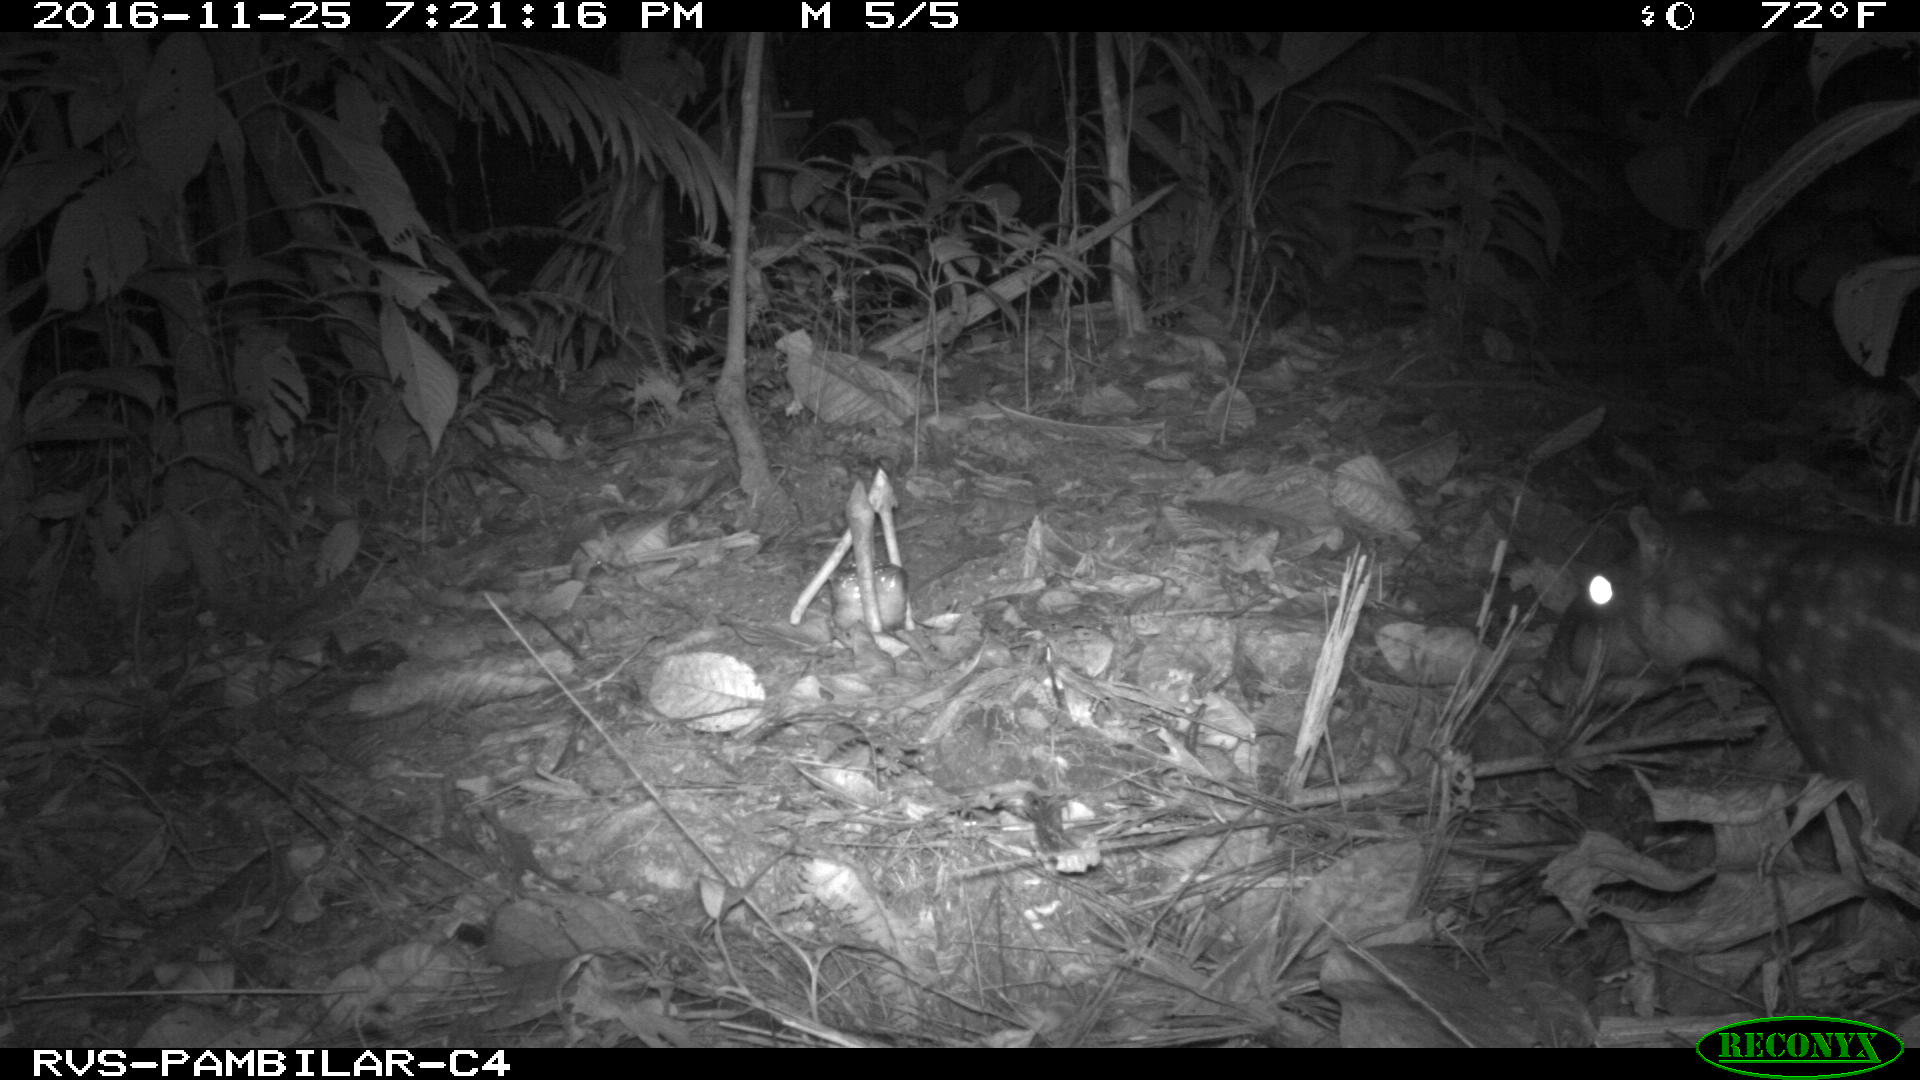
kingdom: Animalia
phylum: Chordata
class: Mammalia
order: Rodentia
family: Cuniculidae
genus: Cuniculus
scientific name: Cuniculus paca
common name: Lowland paca
